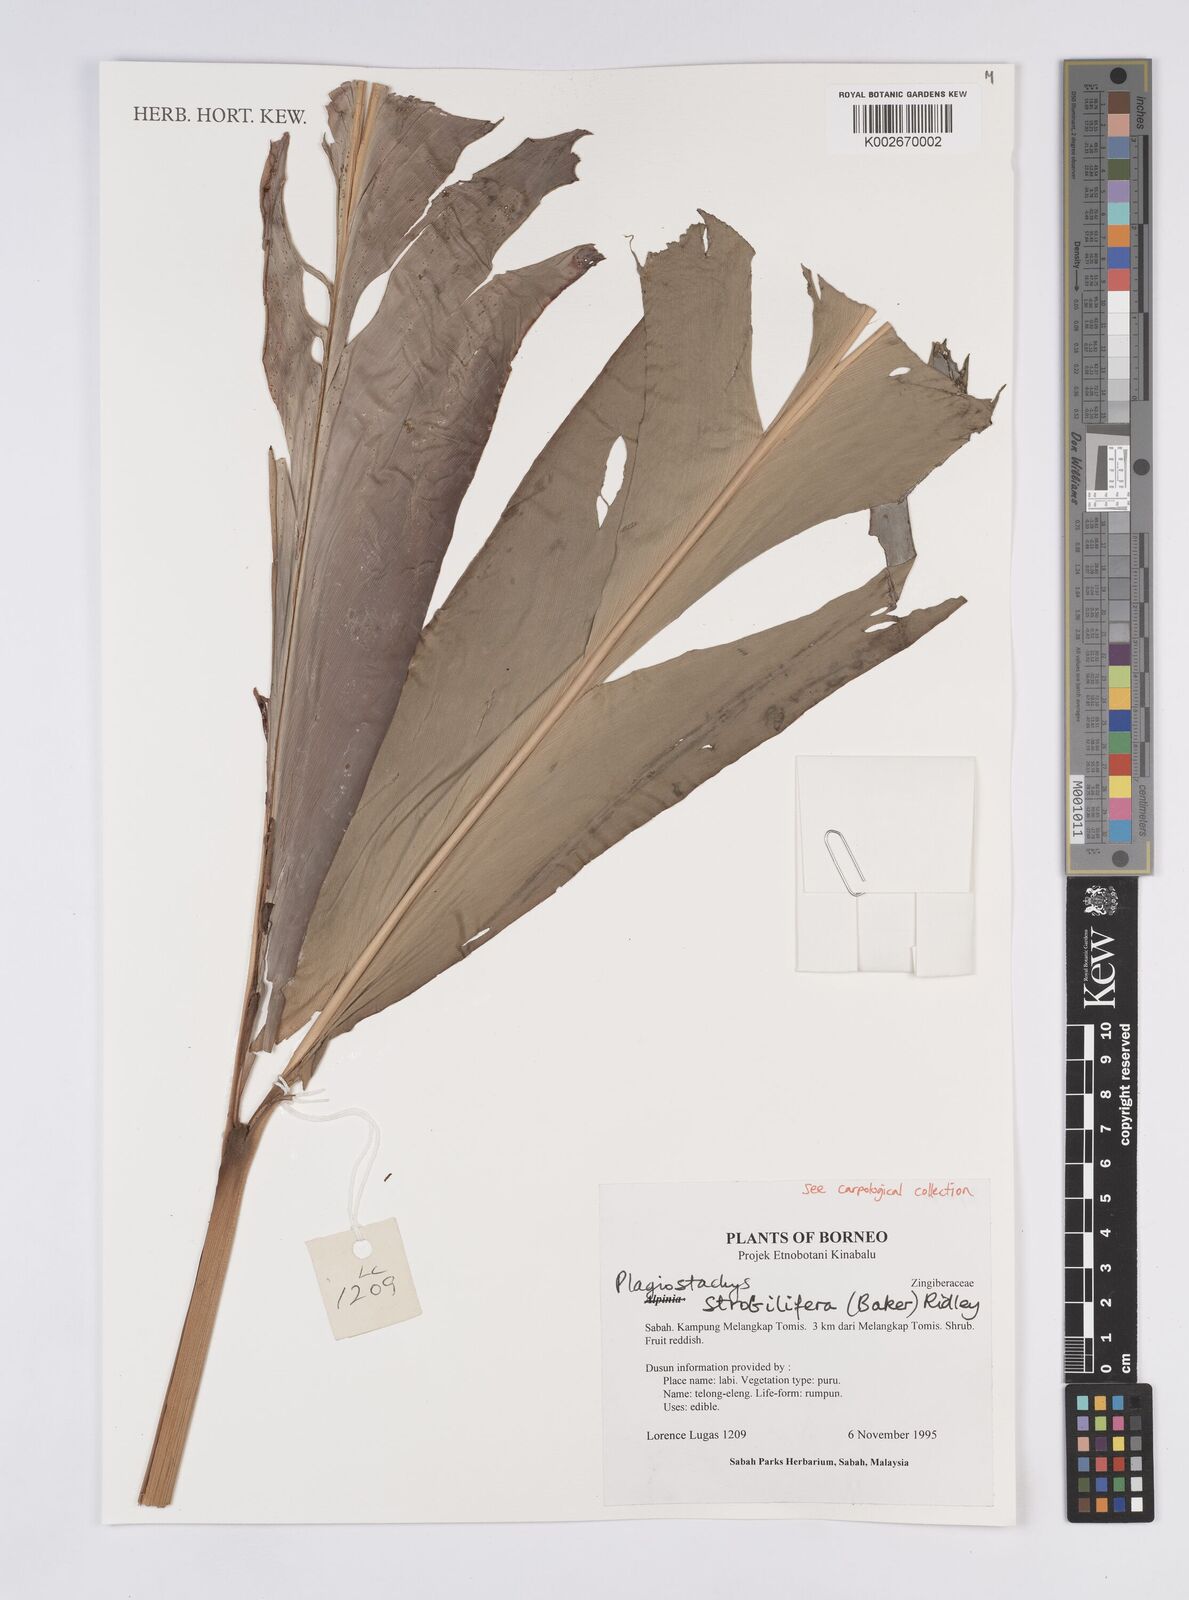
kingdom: Plantae
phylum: Tracheophyta
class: Liliopsida
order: Zingiberales
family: Zingiberaceae
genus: Plagiostachys
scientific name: Plagiostachys strobilifera
